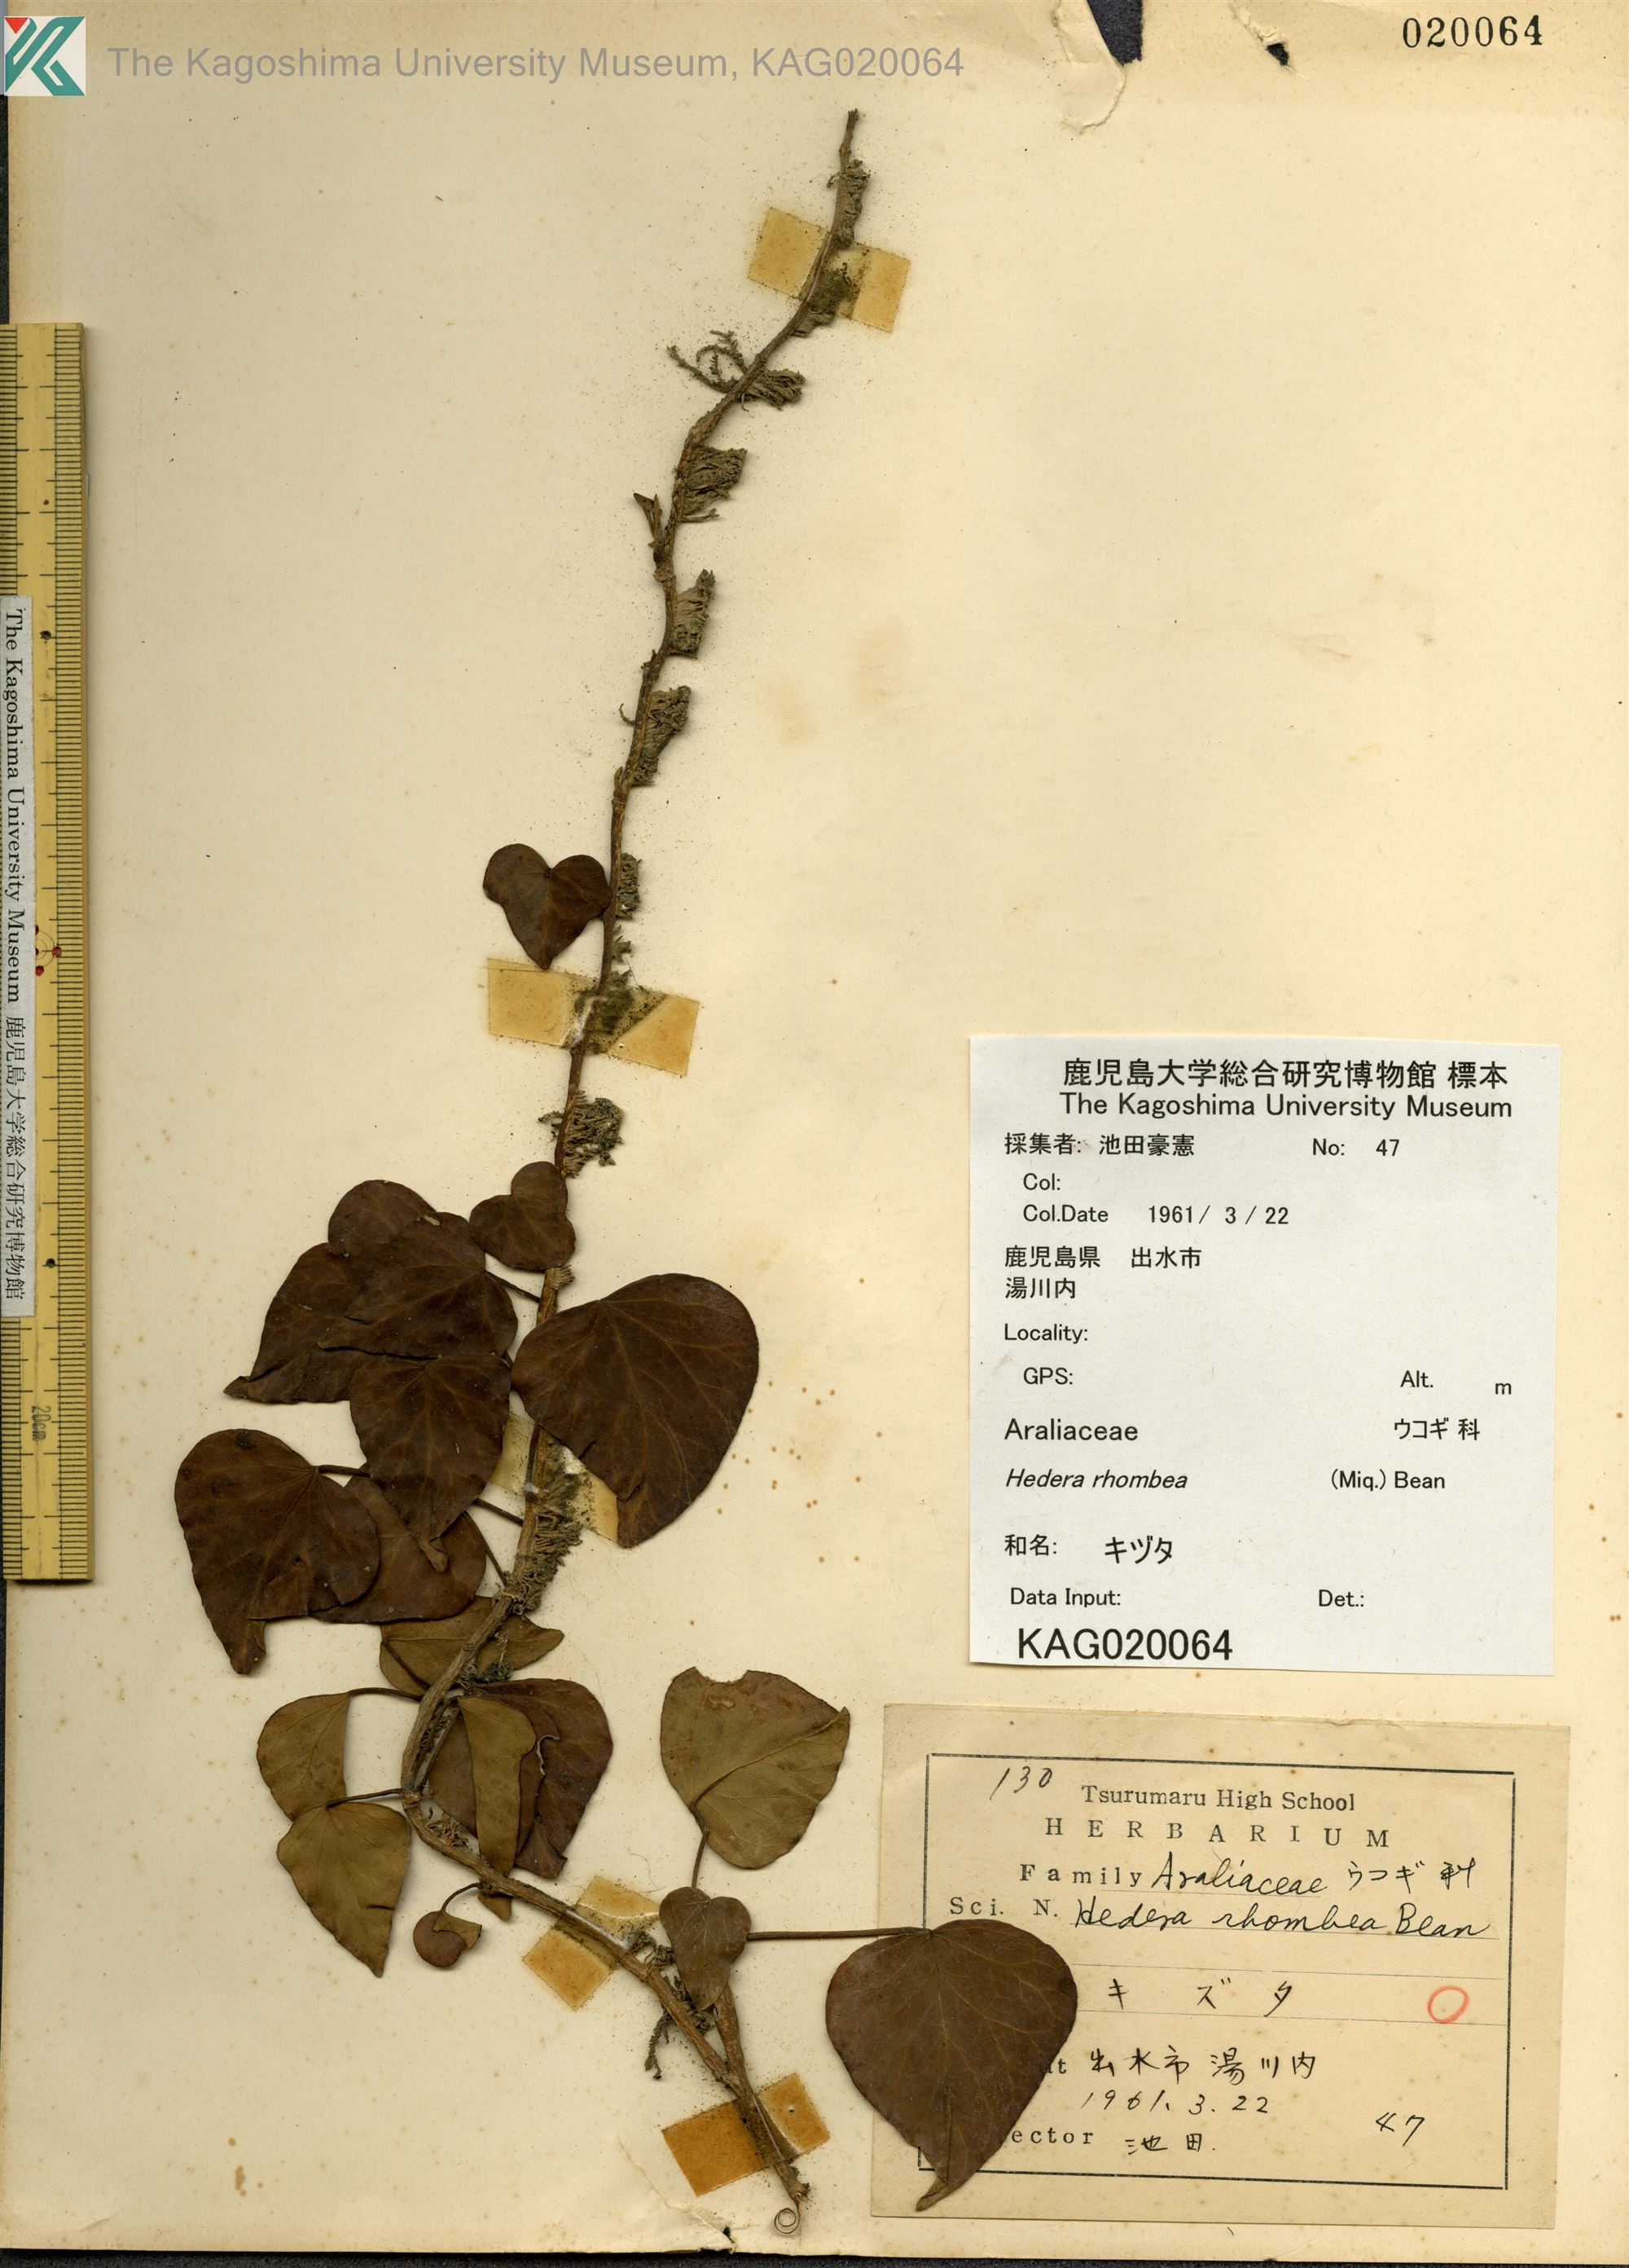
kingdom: Plantae
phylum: Tracheophyta
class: Magnoliopsida
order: Apiales
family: Araliaceae
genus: Hedera
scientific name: Hedera rhombea
